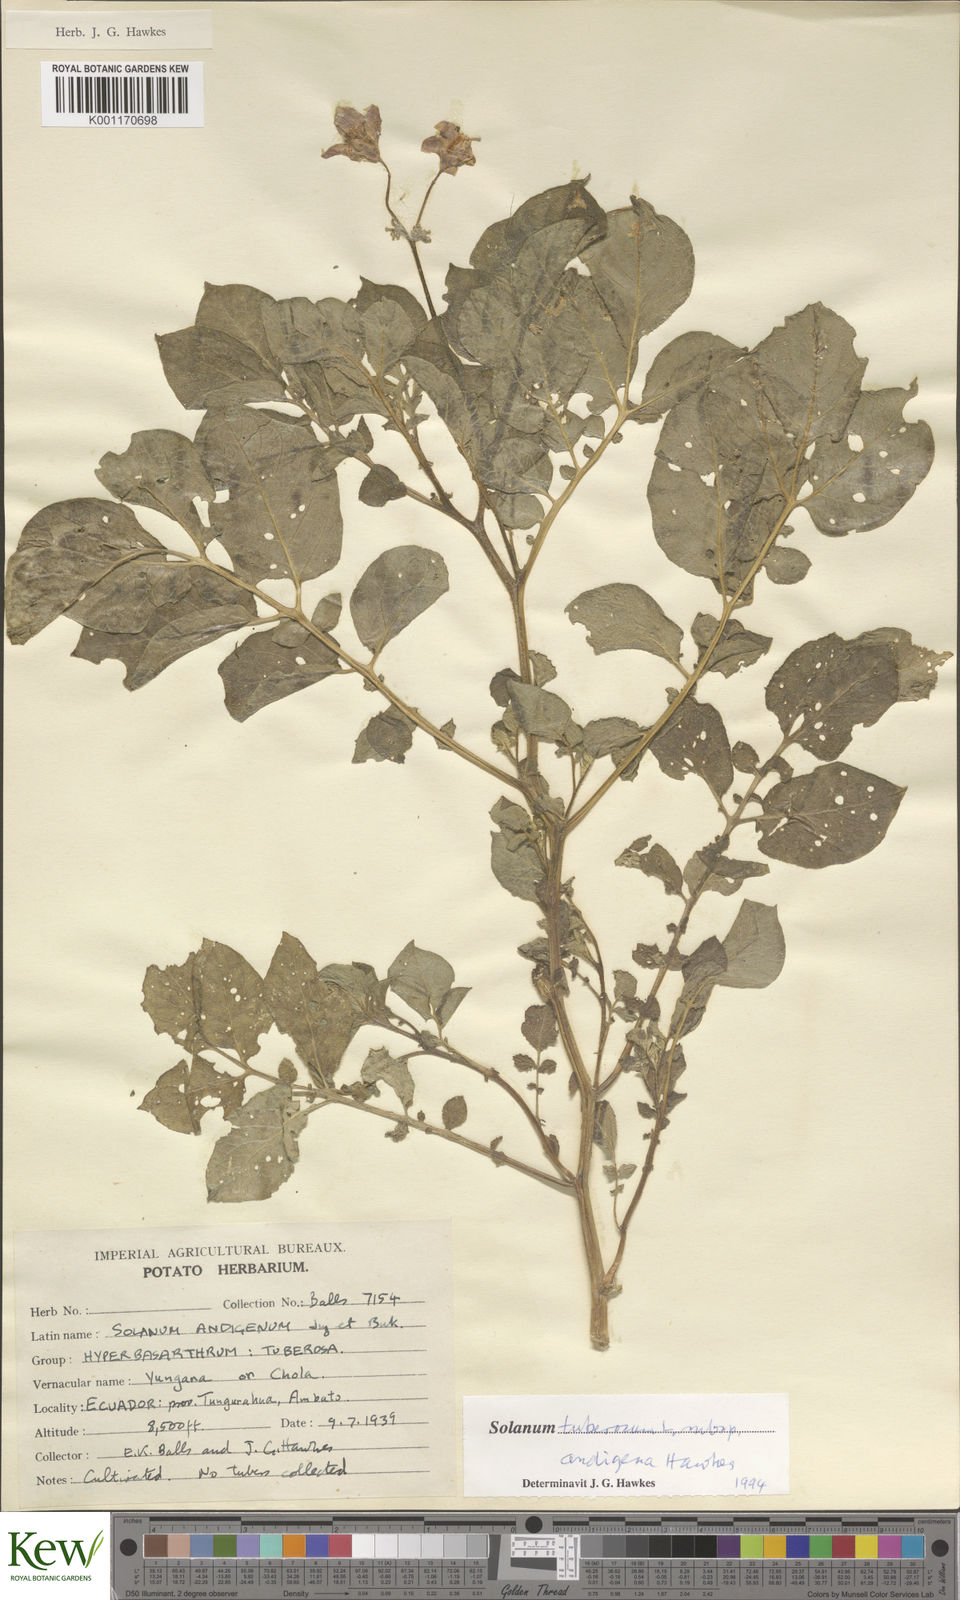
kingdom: Plantae
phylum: Tracheophyta
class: Magnoliopsida
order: Solanales
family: Solanaceae
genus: Solanum
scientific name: Solanum tuberosum
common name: Potato
